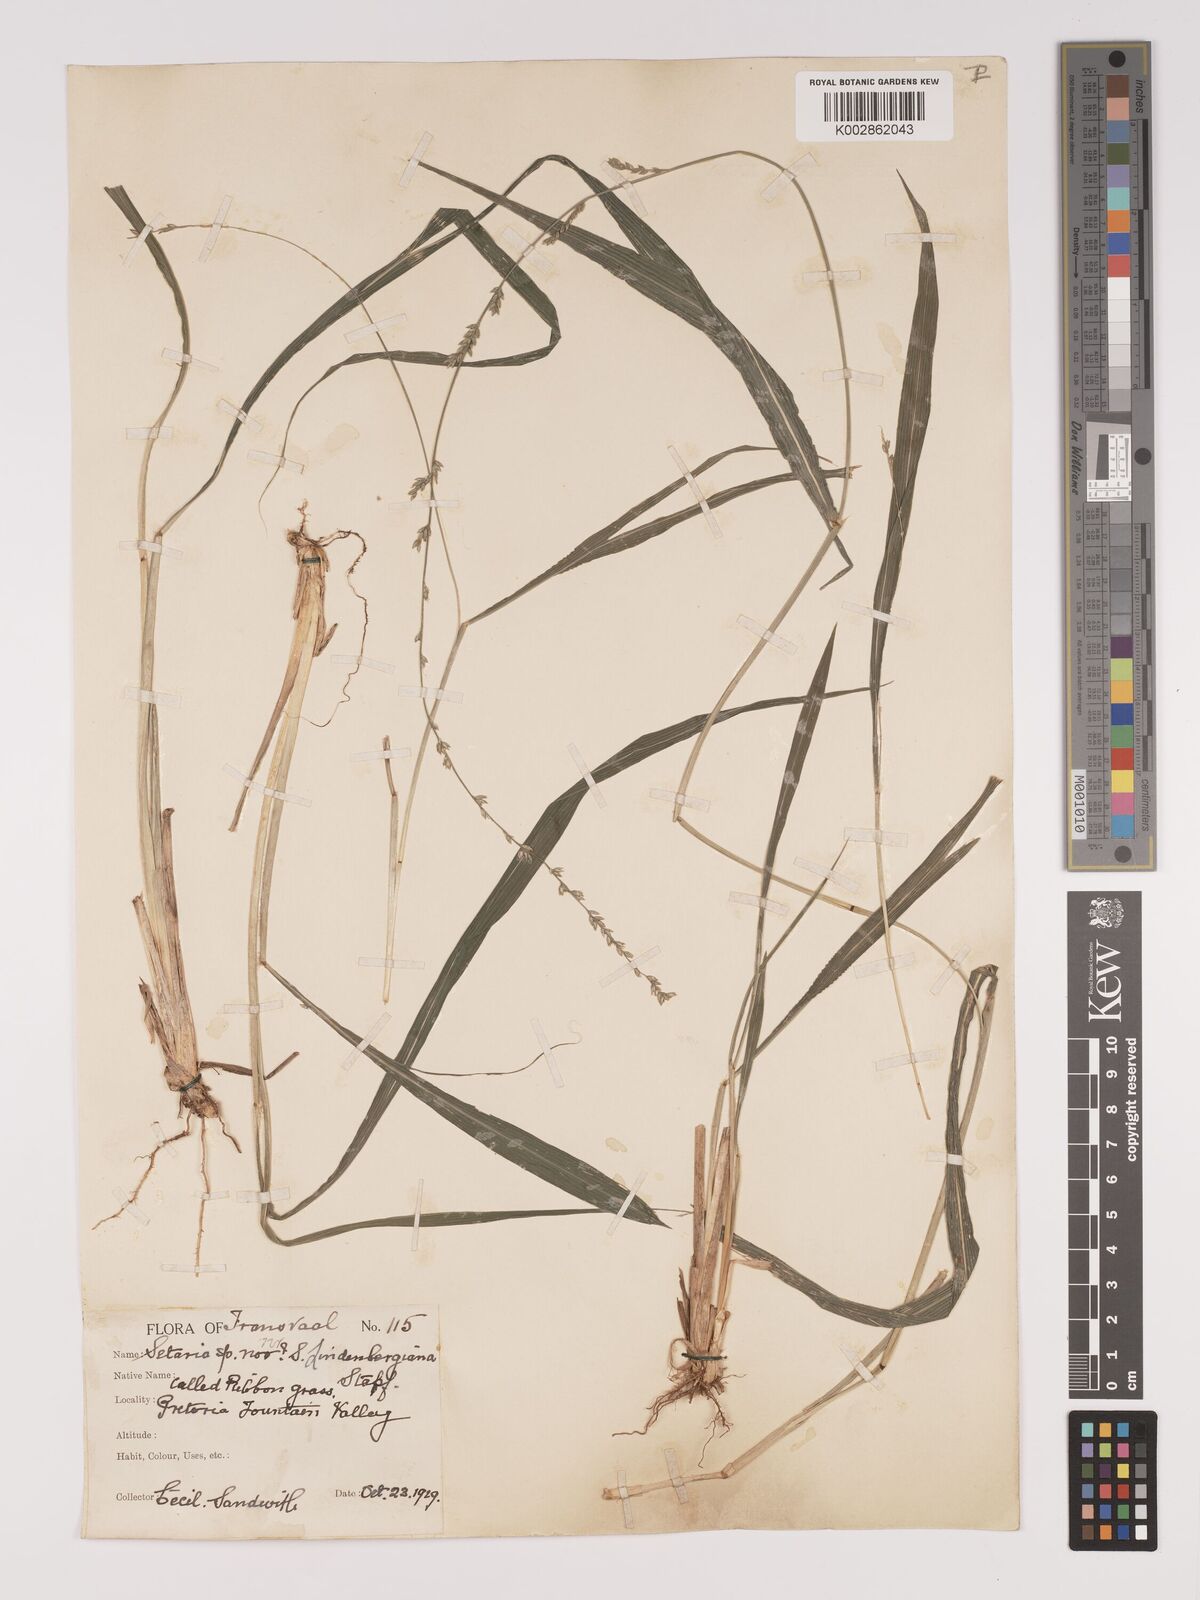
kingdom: Plantae
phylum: Tracheophyta
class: Liliopsida
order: Poales
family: Poaceae
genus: Setaria
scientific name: Setaria megaphylla
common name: Bigleaf bristlegrass
